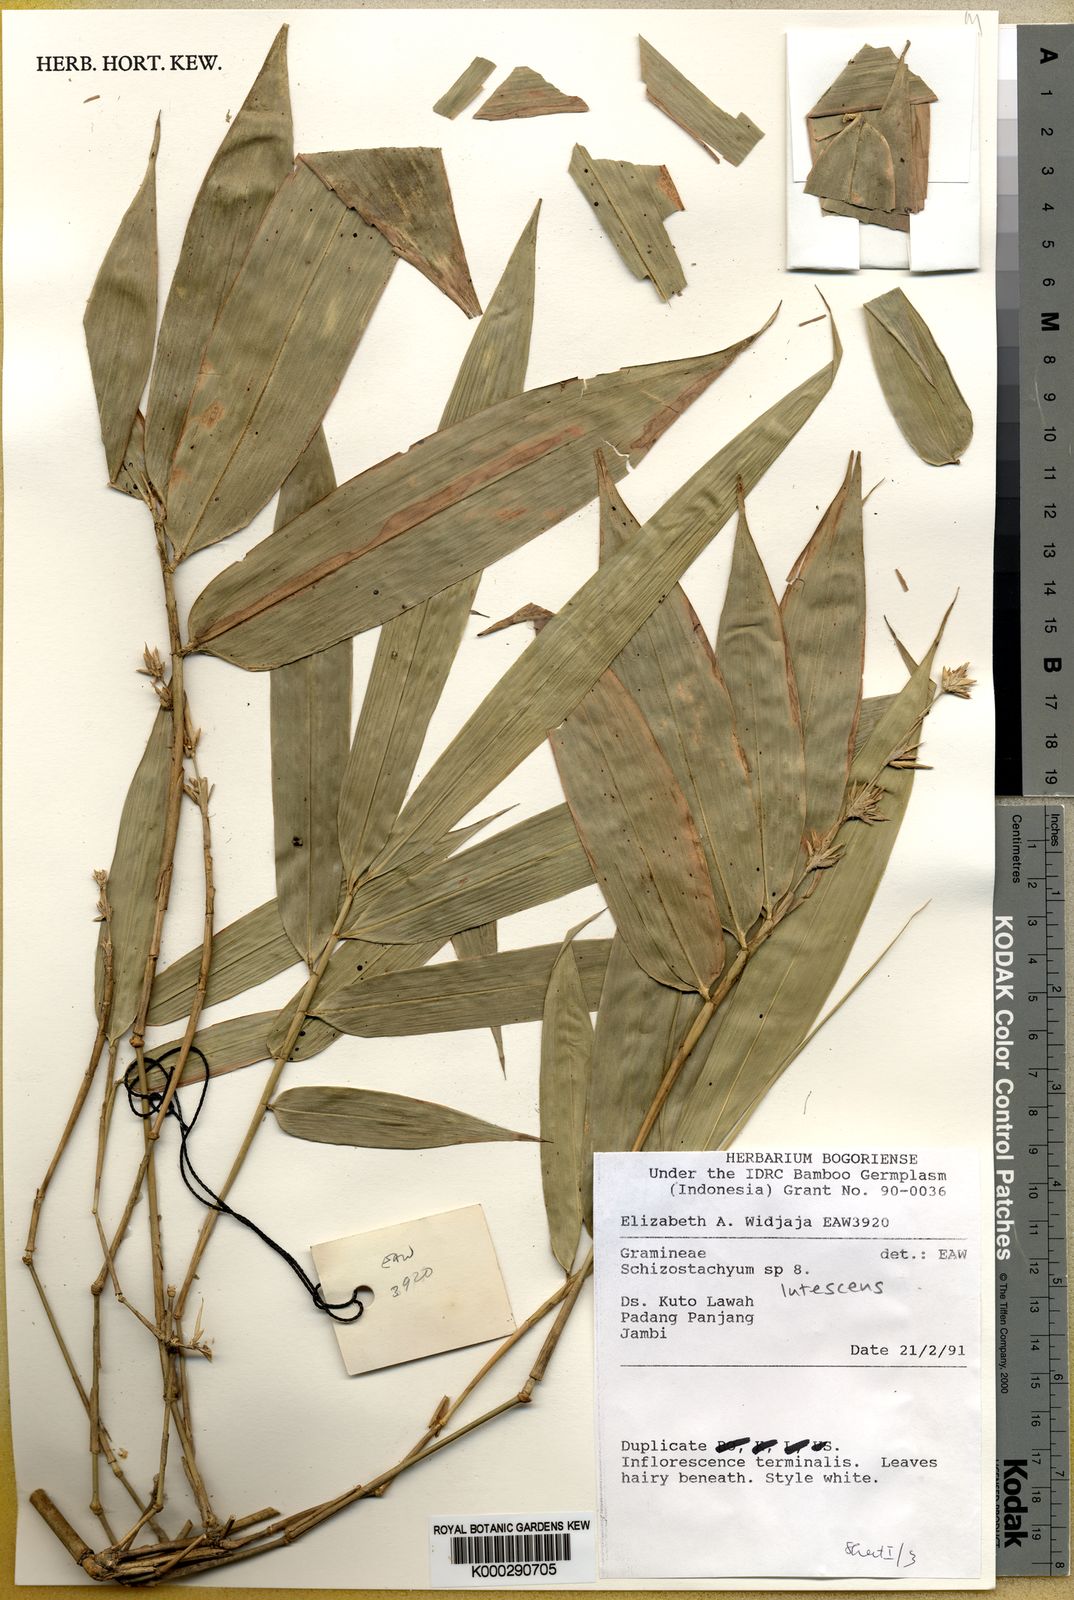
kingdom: Plantae
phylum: Tracheophyta
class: Liliopsida
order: Poales
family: Poaceae
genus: Schizostachyum
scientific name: Schizostachyum lutescens
